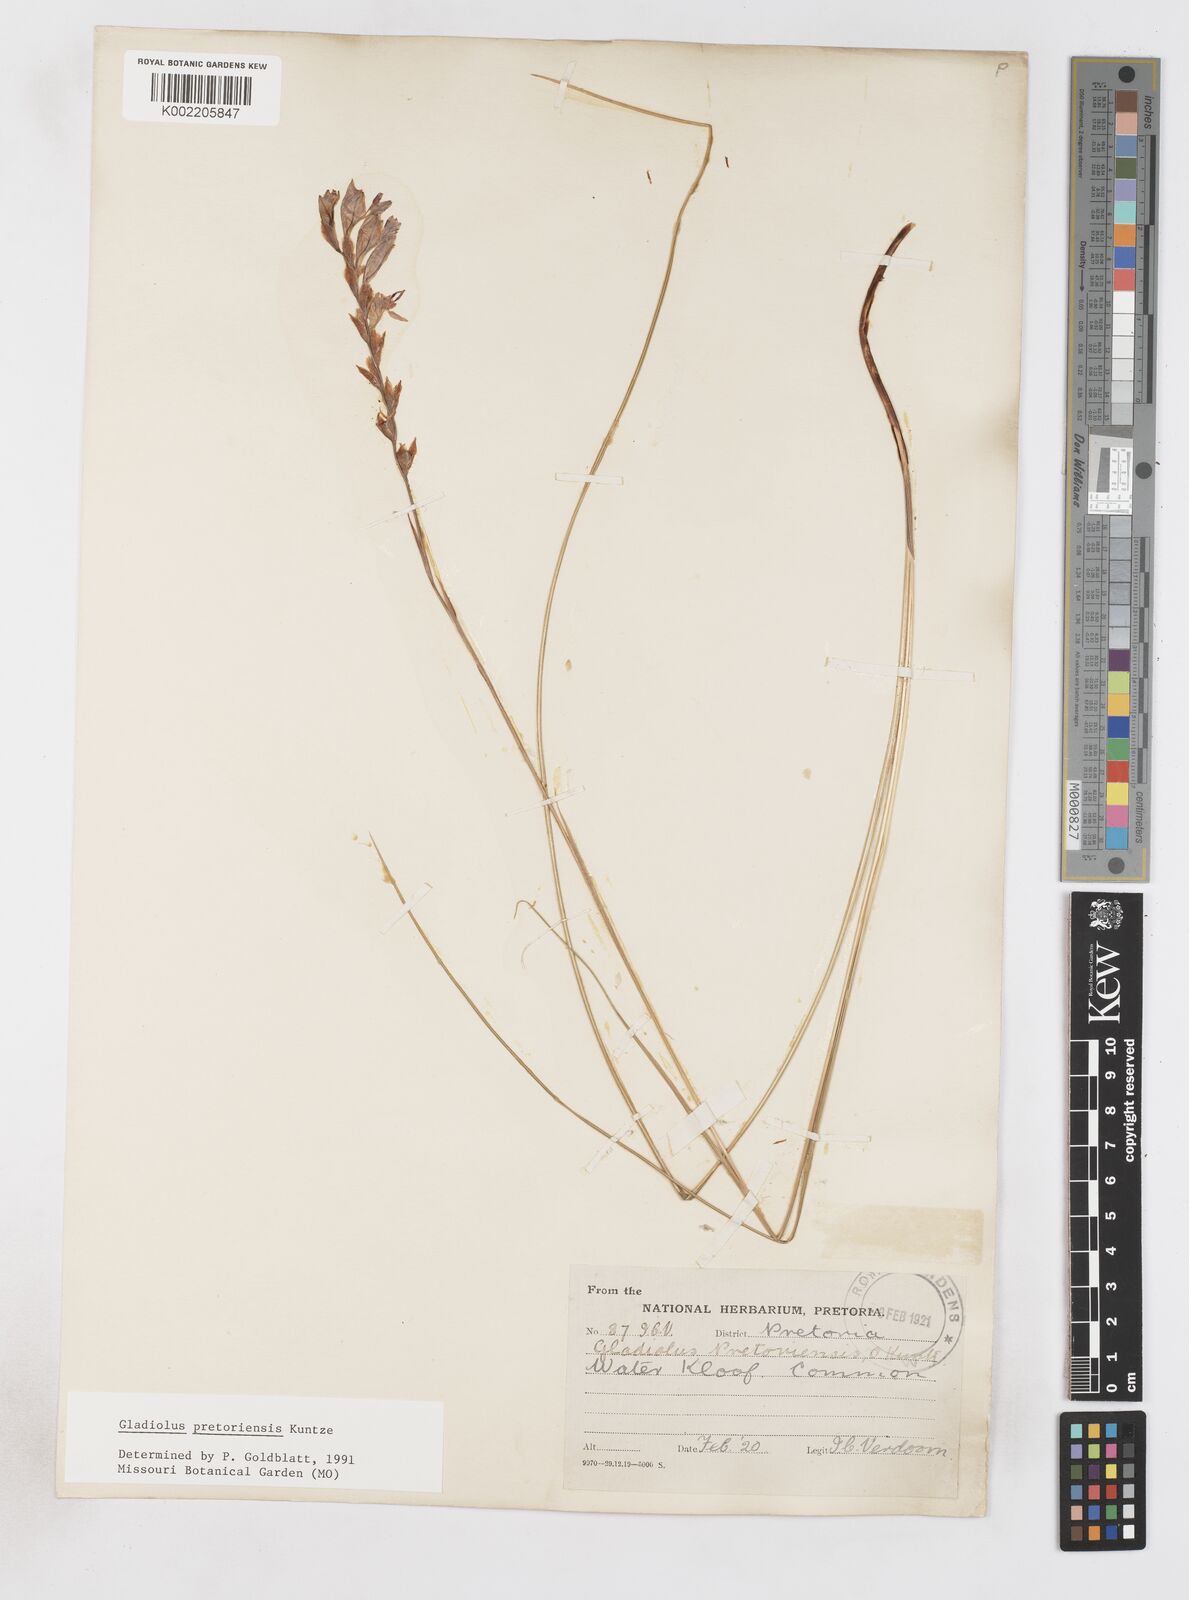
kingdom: Plantae
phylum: Tracheophyta
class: Liliopsida
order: Asparagales
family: Iridaceae
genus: Gladiolus
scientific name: Gladiolus pretoriensis
